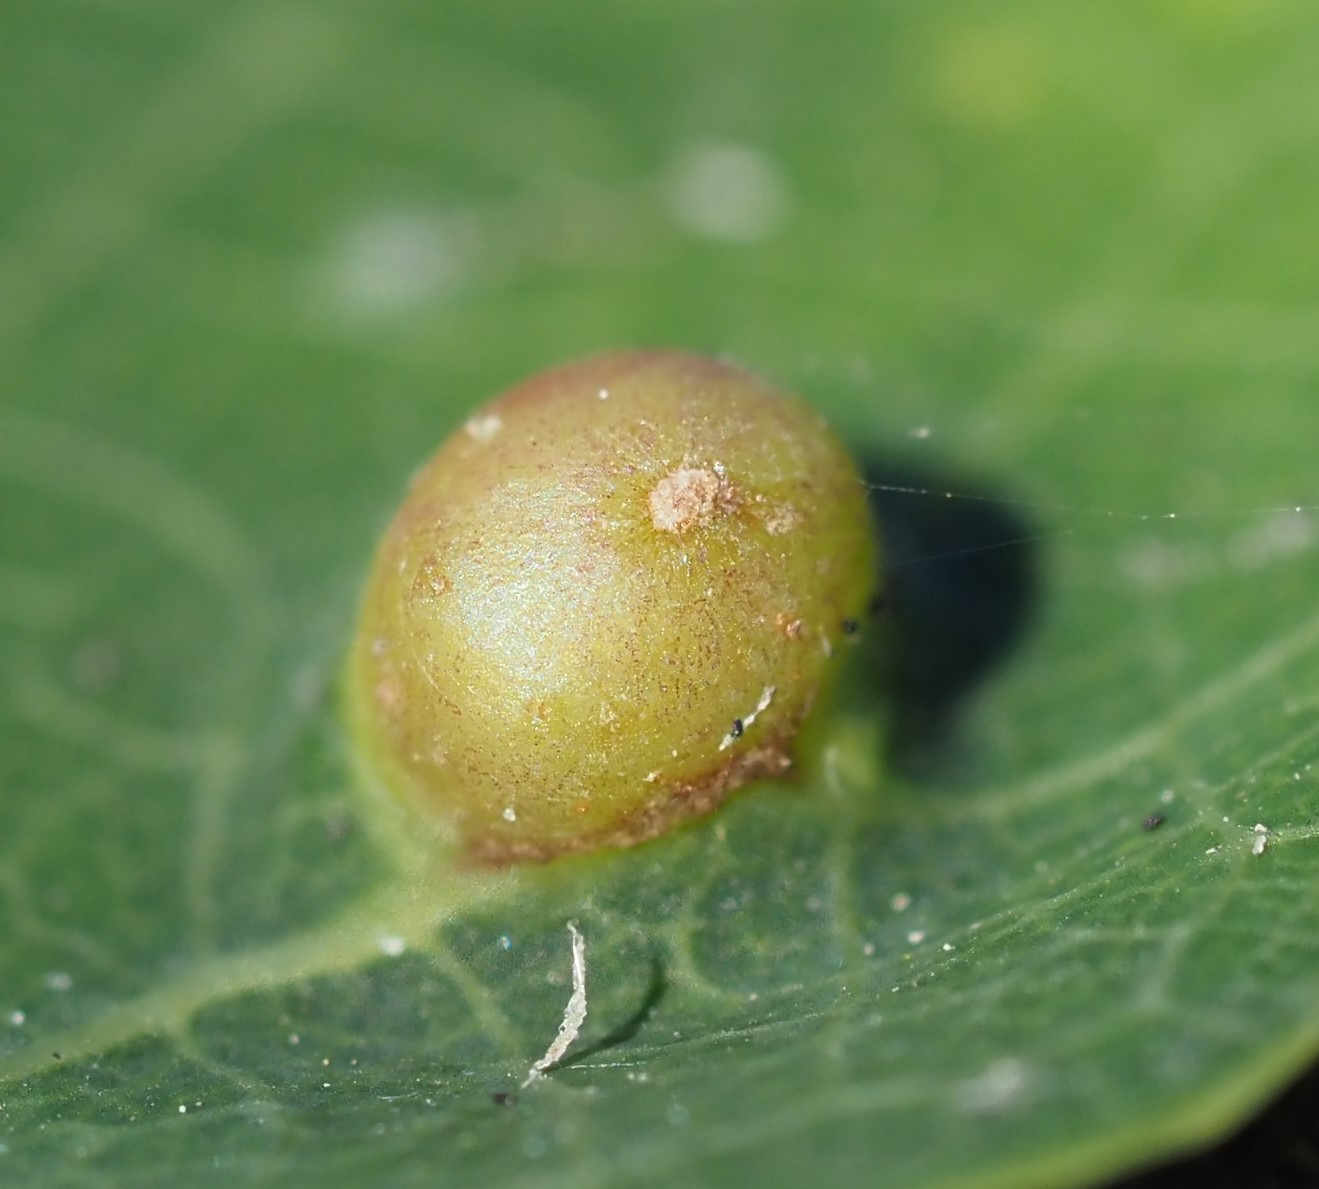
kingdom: Animalia
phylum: Arthropoda
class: Insecta
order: Diptera
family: Cecidomyiidae
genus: Harmandiola
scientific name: Harmandiola globuli
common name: Aspekravegalmyg
